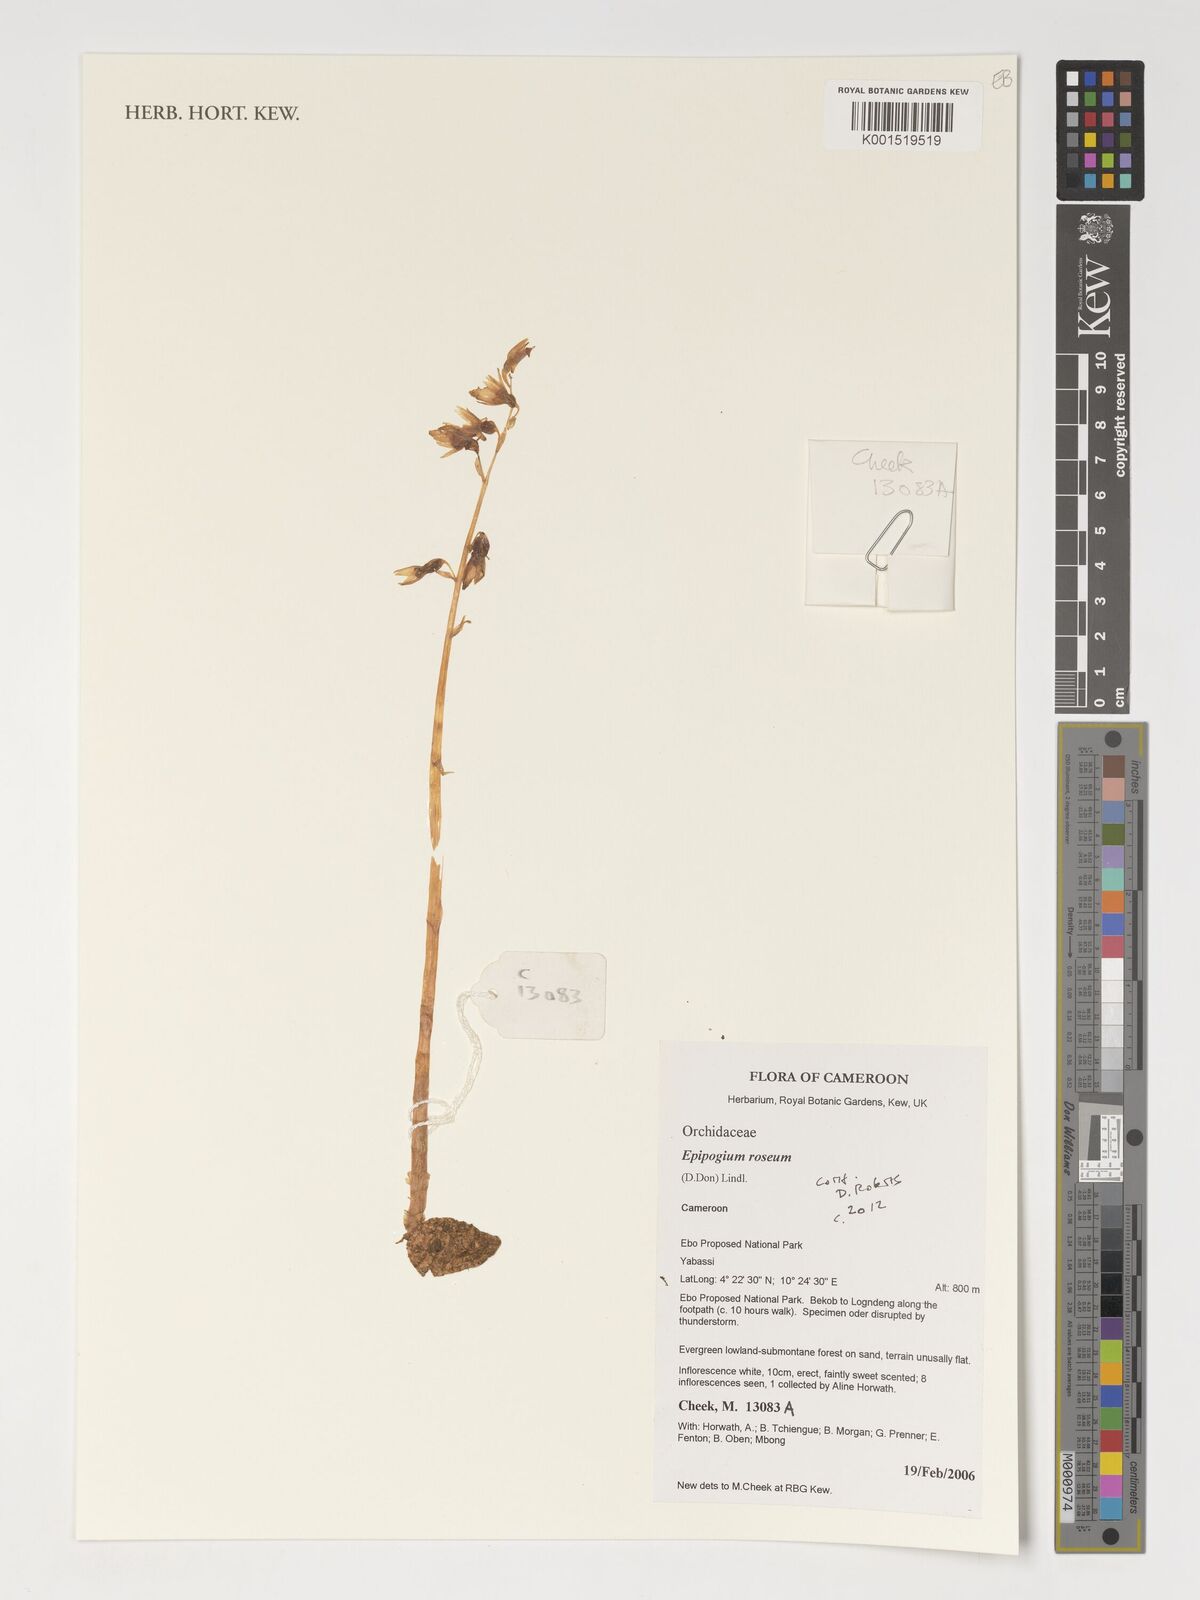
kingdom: Plantae
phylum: Tracheophyta
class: Liliopsida
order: Asparagales
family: Orchidaceae
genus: Epipogium
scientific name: Epipogium roseum
